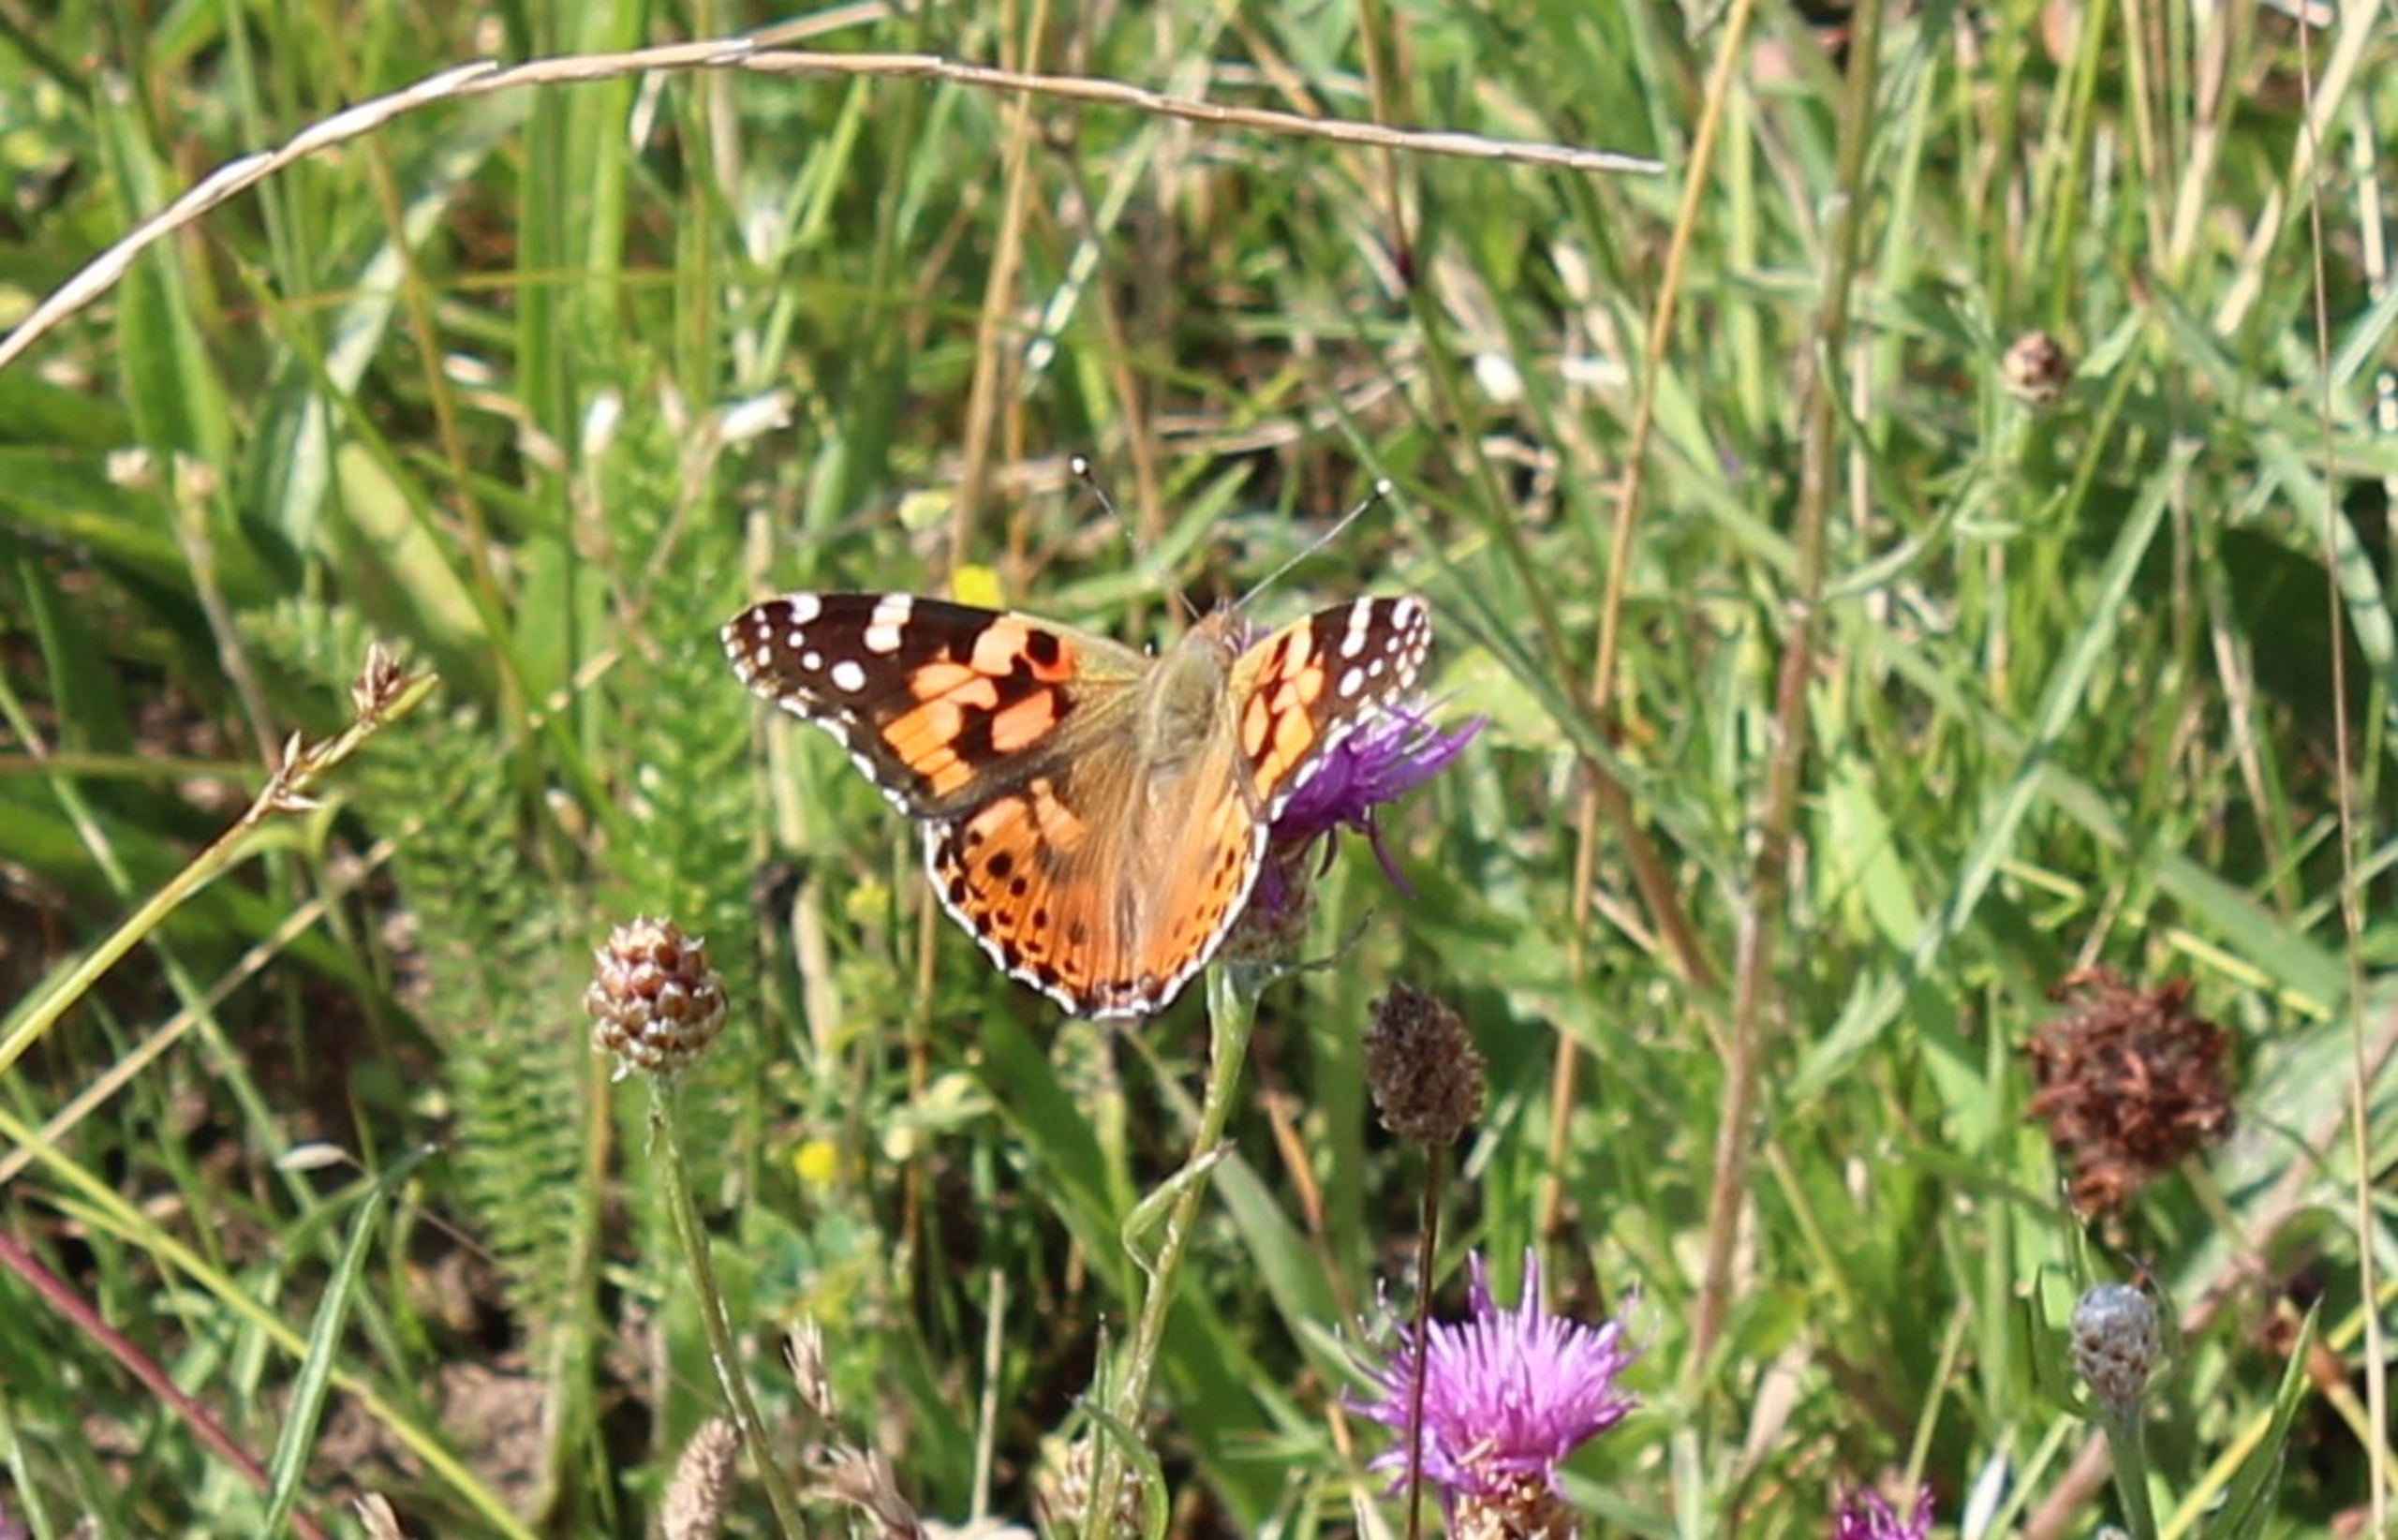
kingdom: Animalia
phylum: Arthropoda
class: Insecta
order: Lepidoptera
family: Nymphalidae
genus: Vanessa
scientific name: Vanessa cardui
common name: Tidselsommerfugl
